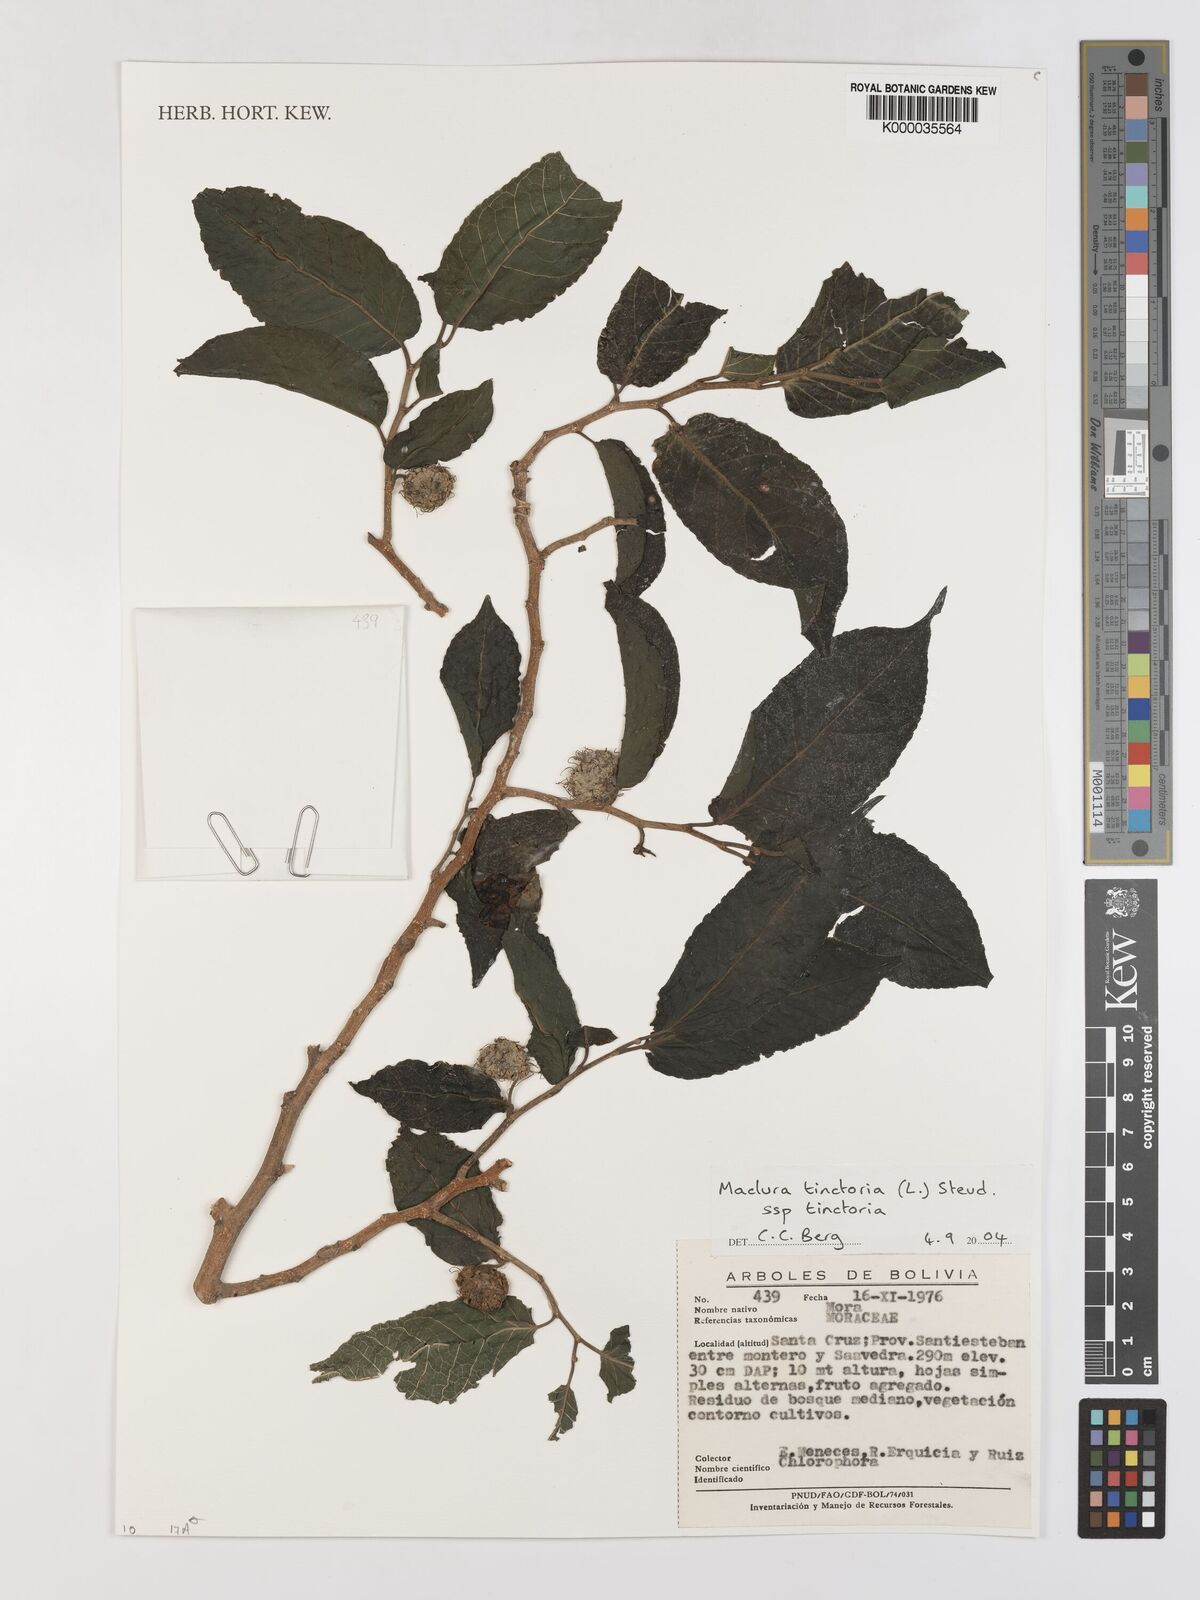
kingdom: Plantae
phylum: Tracheophyta
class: Magnoliopsida
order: Rosales
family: Moraceae
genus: Maclura
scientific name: Maclura tinctoria
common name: Old fustic
